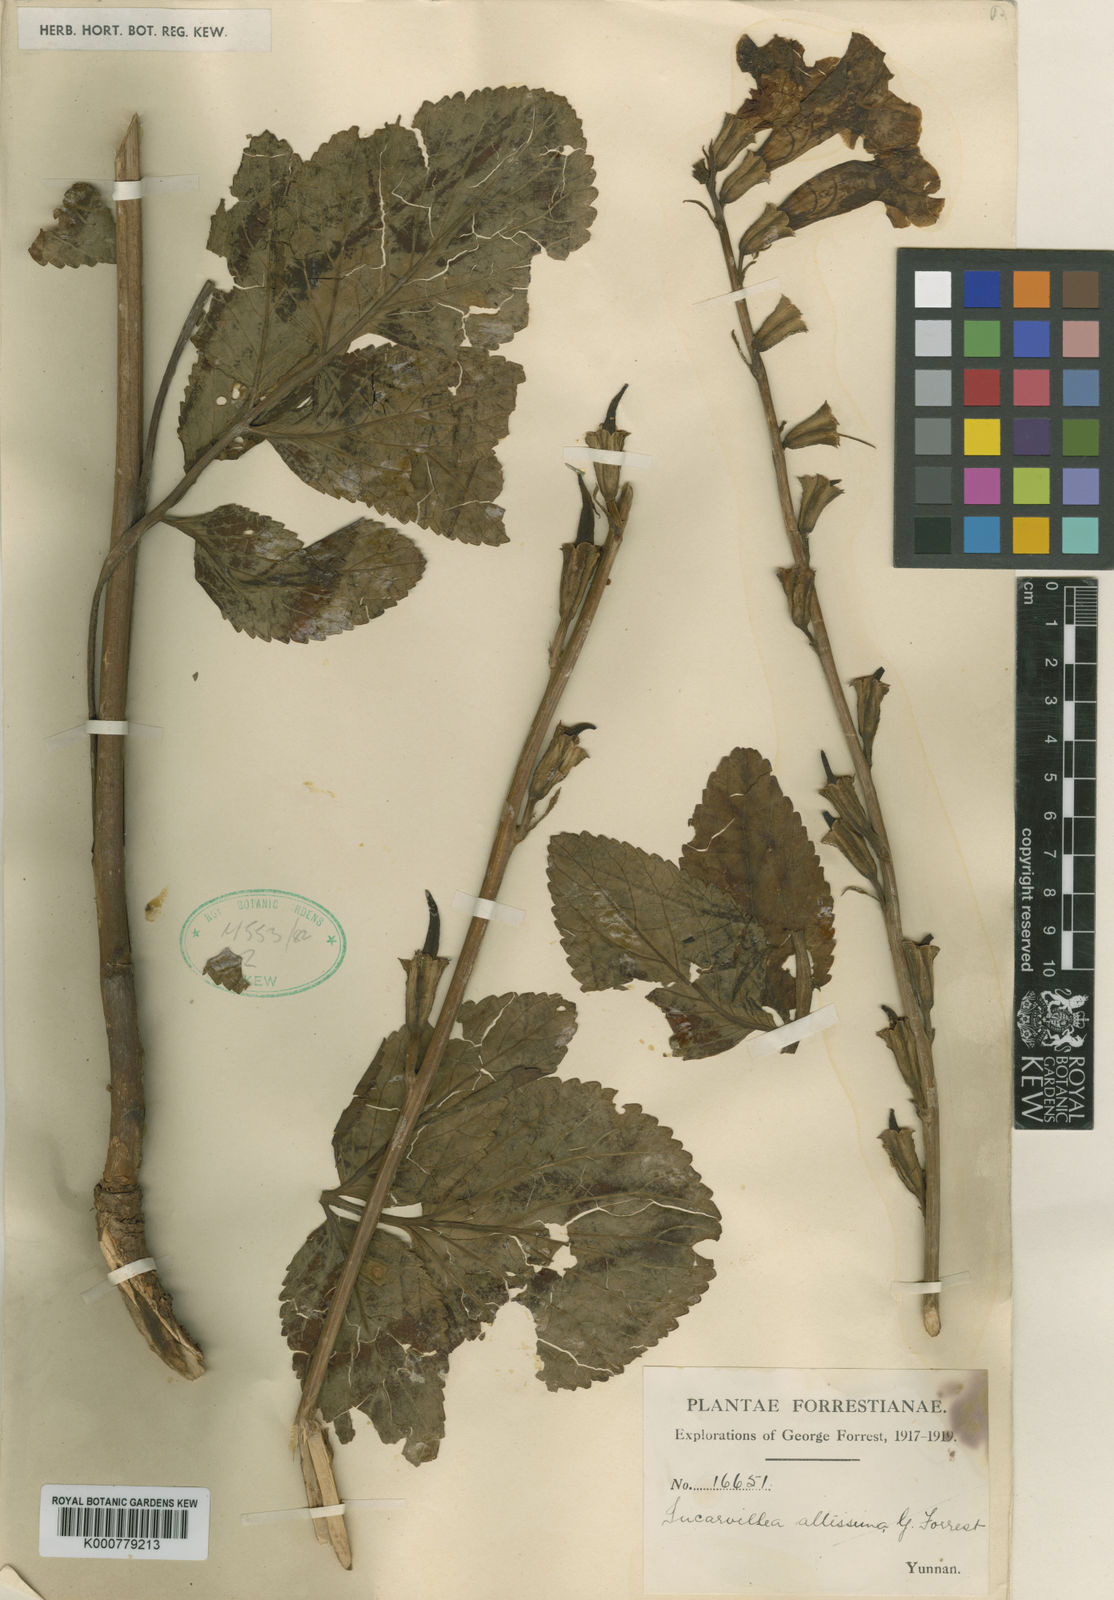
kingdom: Plantae
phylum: Tracheophyta
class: Magnoliopsida
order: Lamiales
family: Bignoniaceae
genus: Incarvillea
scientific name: Incarvillea altissima
